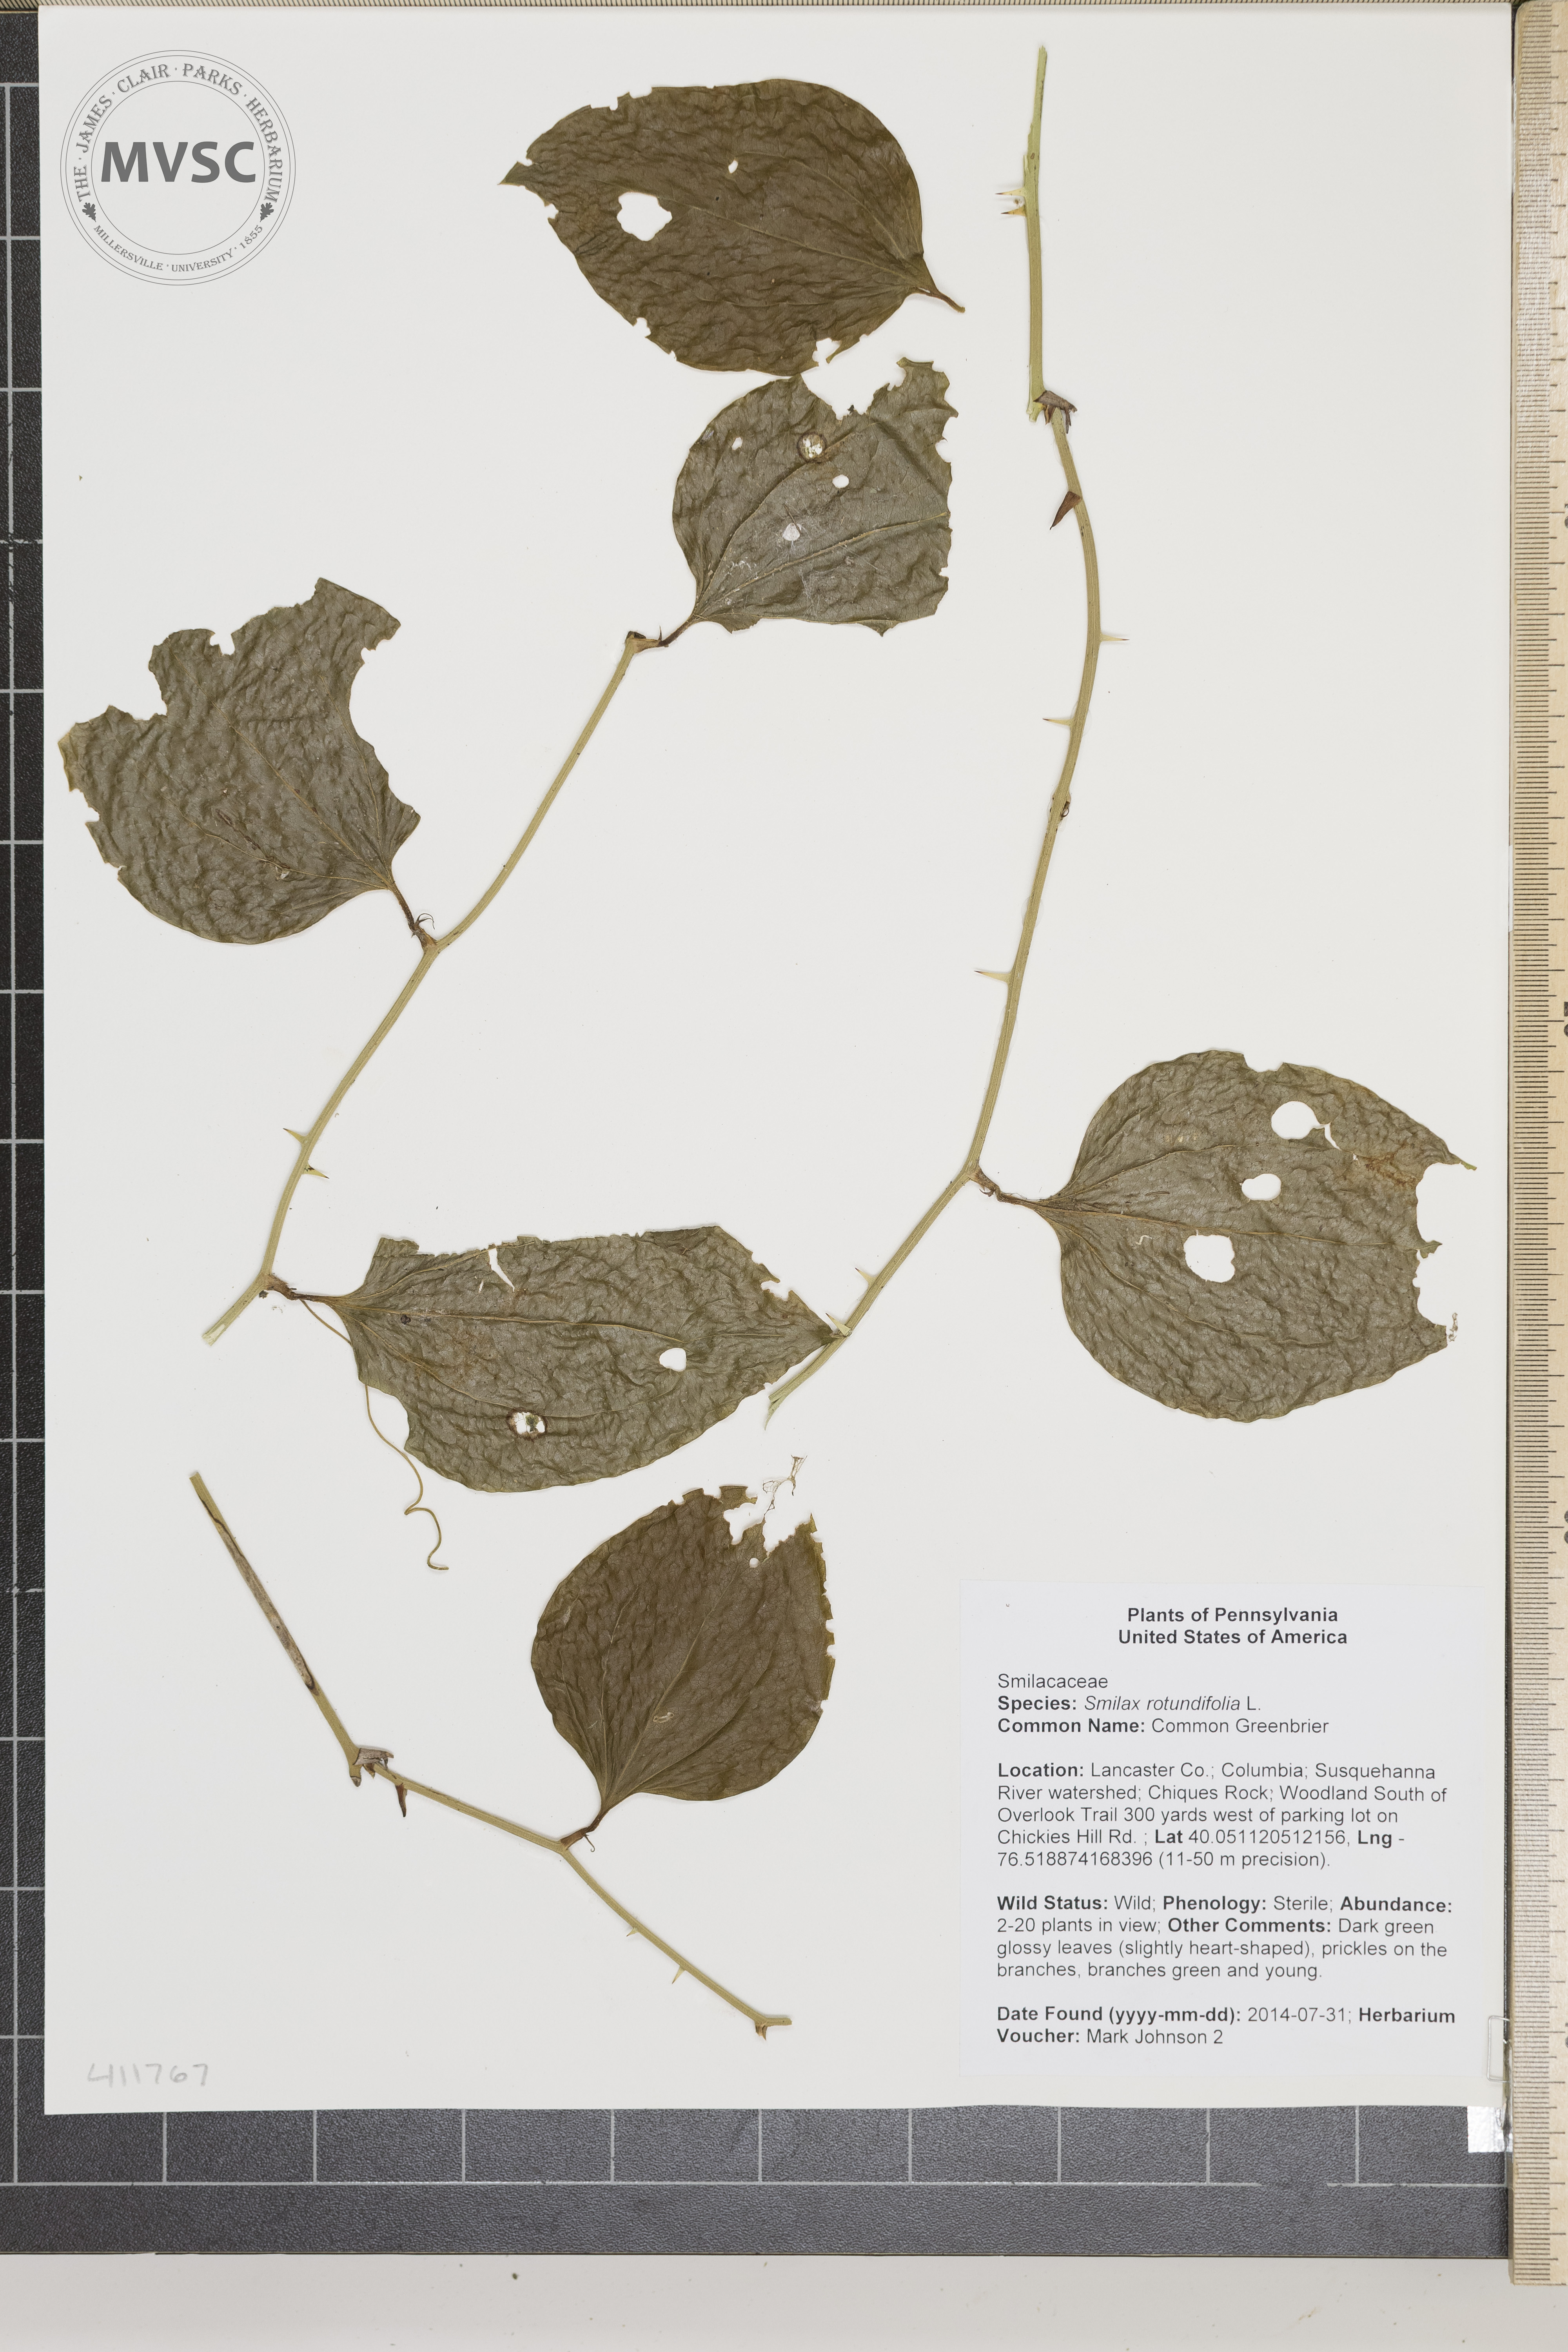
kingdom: Plantae
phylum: Tracheophyta
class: Liliopsida
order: Liliales
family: Smilacaceae
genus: Smilax
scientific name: Smilax rotundifolia
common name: Common Greenbrier
